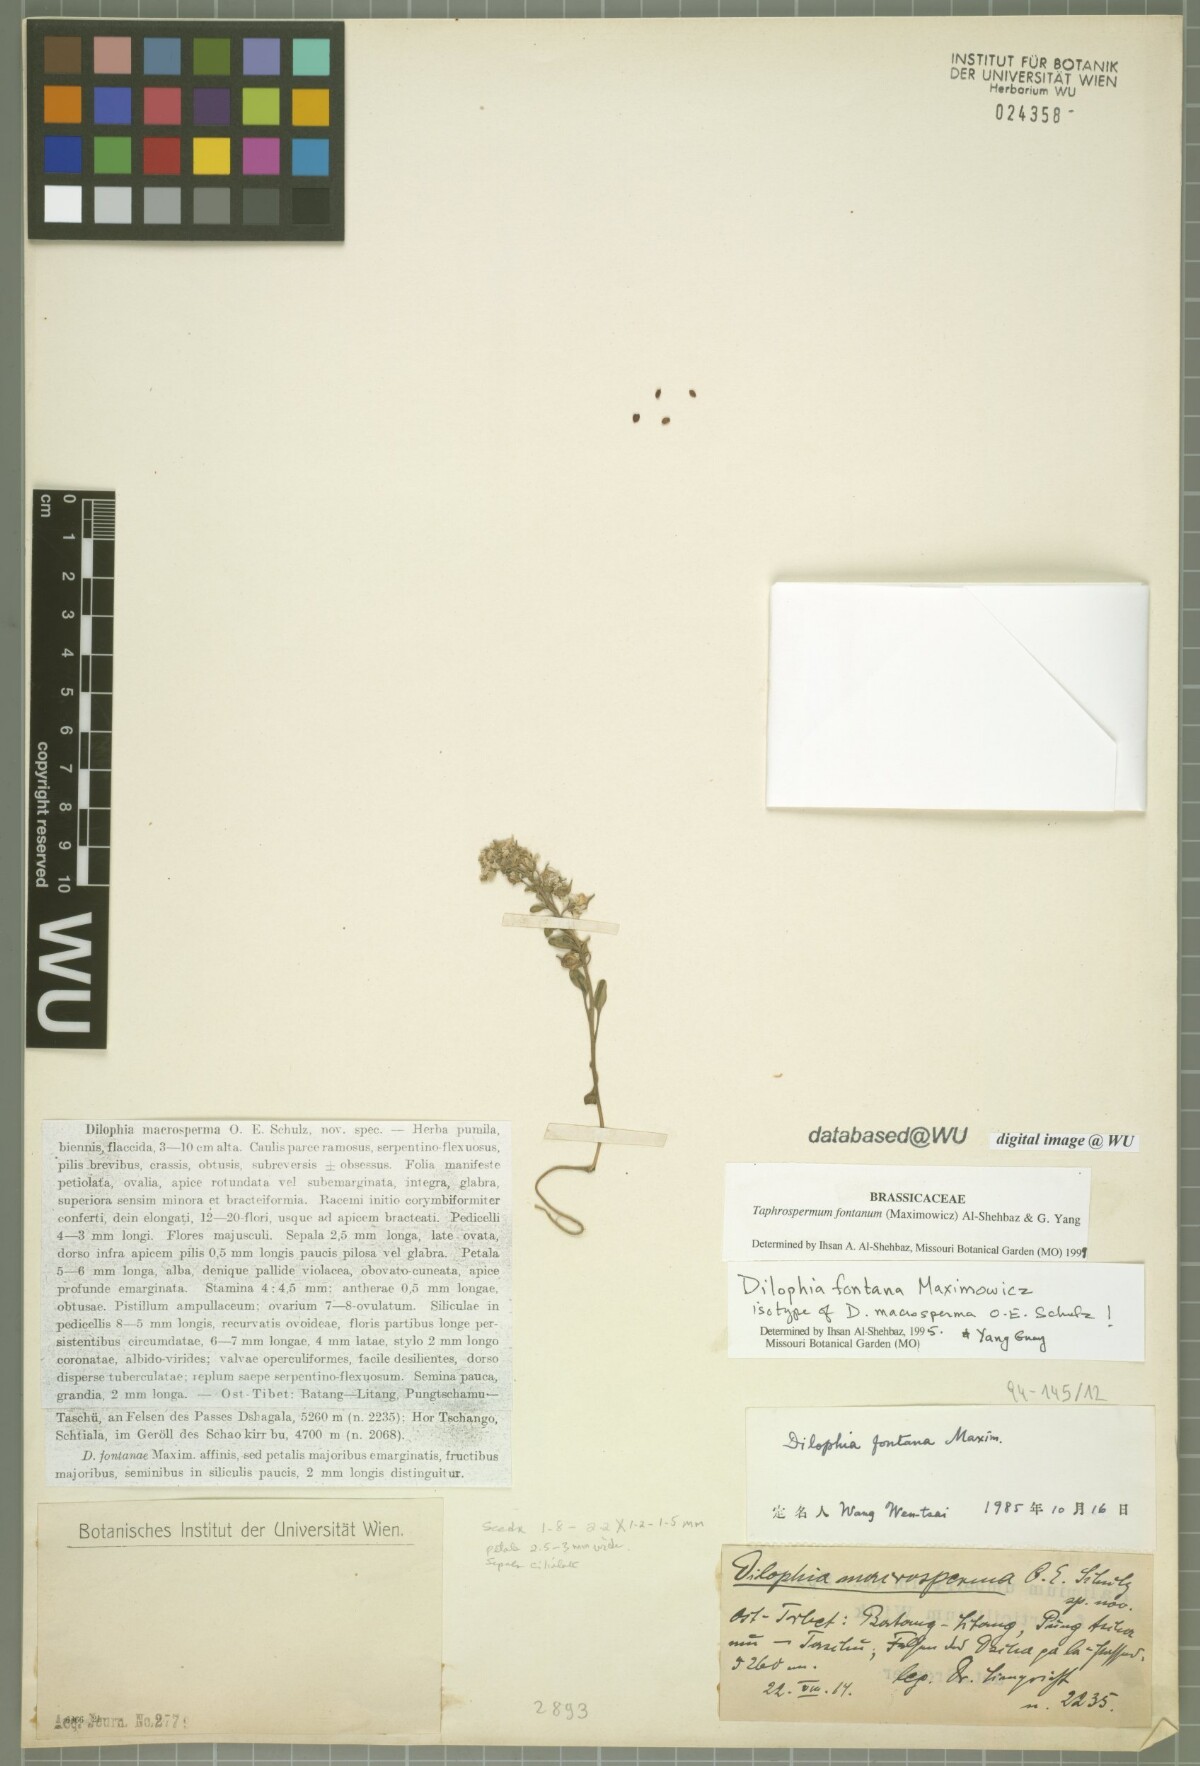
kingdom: Plantae
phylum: Tracheophyta
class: Magnoliopsida
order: Brassicales
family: Brassicaceae
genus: Eutrema
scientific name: Eutrema fontanum
